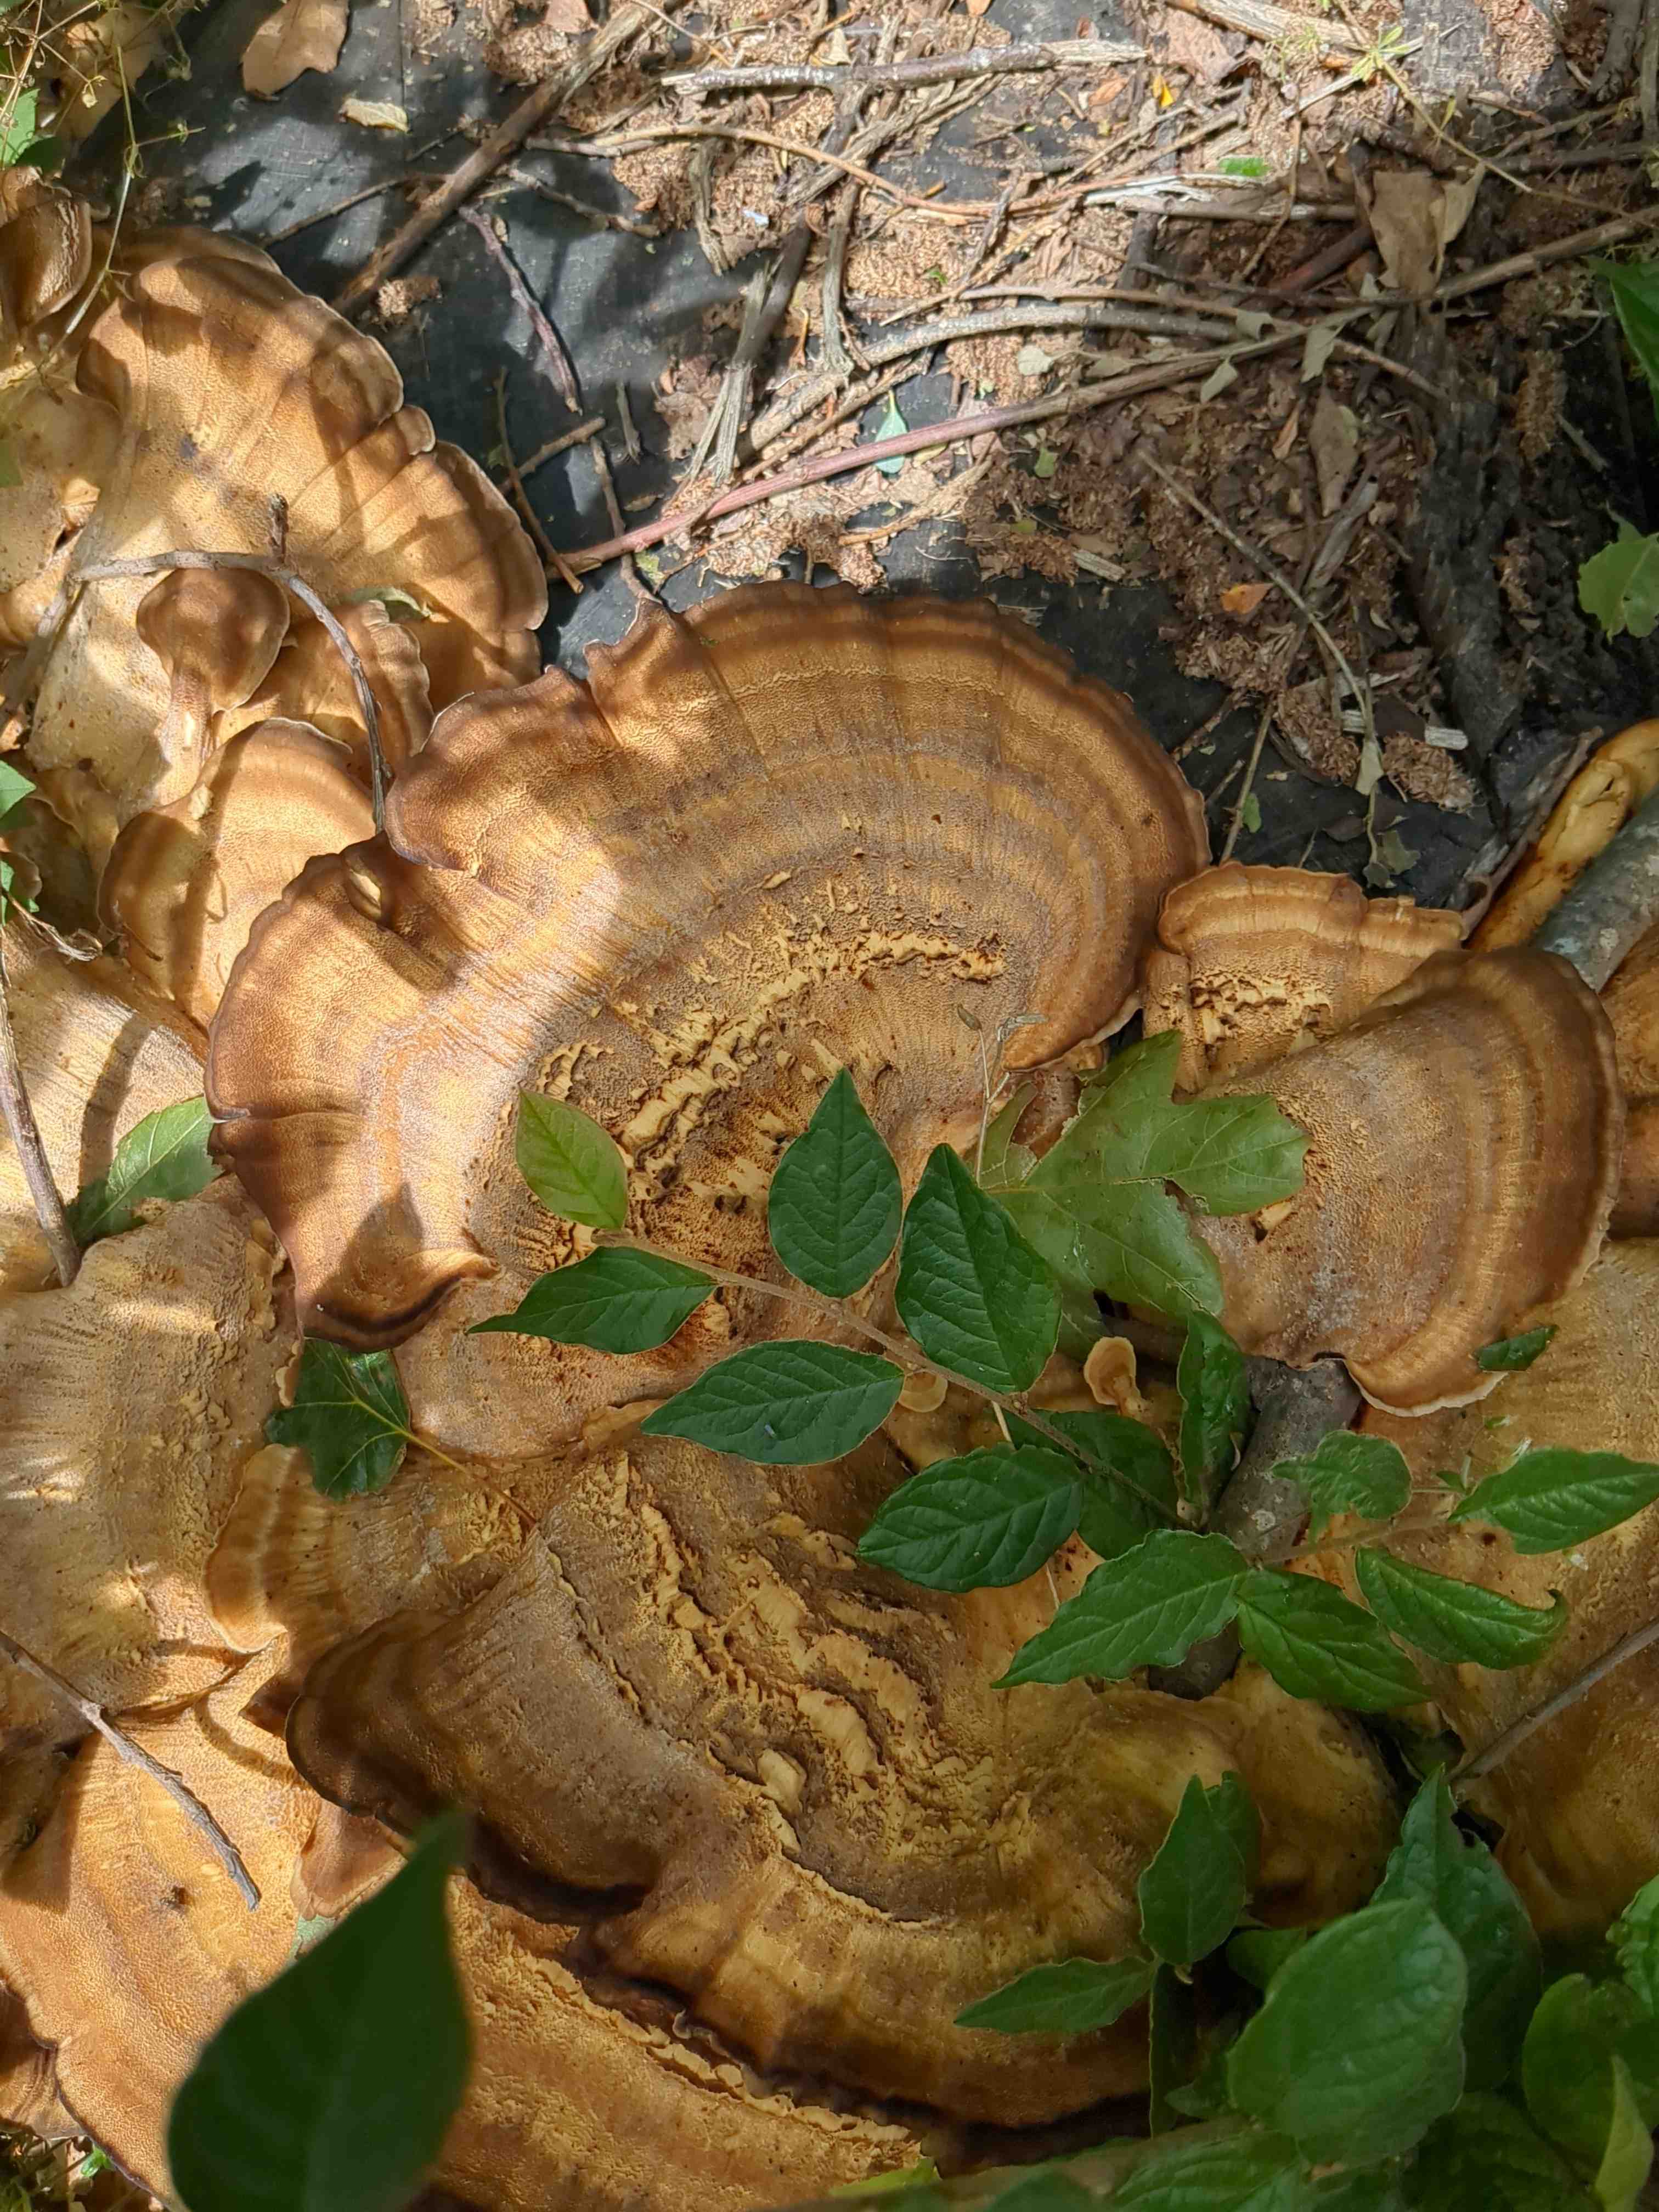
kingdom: Fungi
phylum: Basidiomycota
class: Agaricomycetes
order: Polyporales
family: Meripilaceae
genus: Meripilus
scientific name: Meripilus giganteus
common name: kæmpeporesvamp
